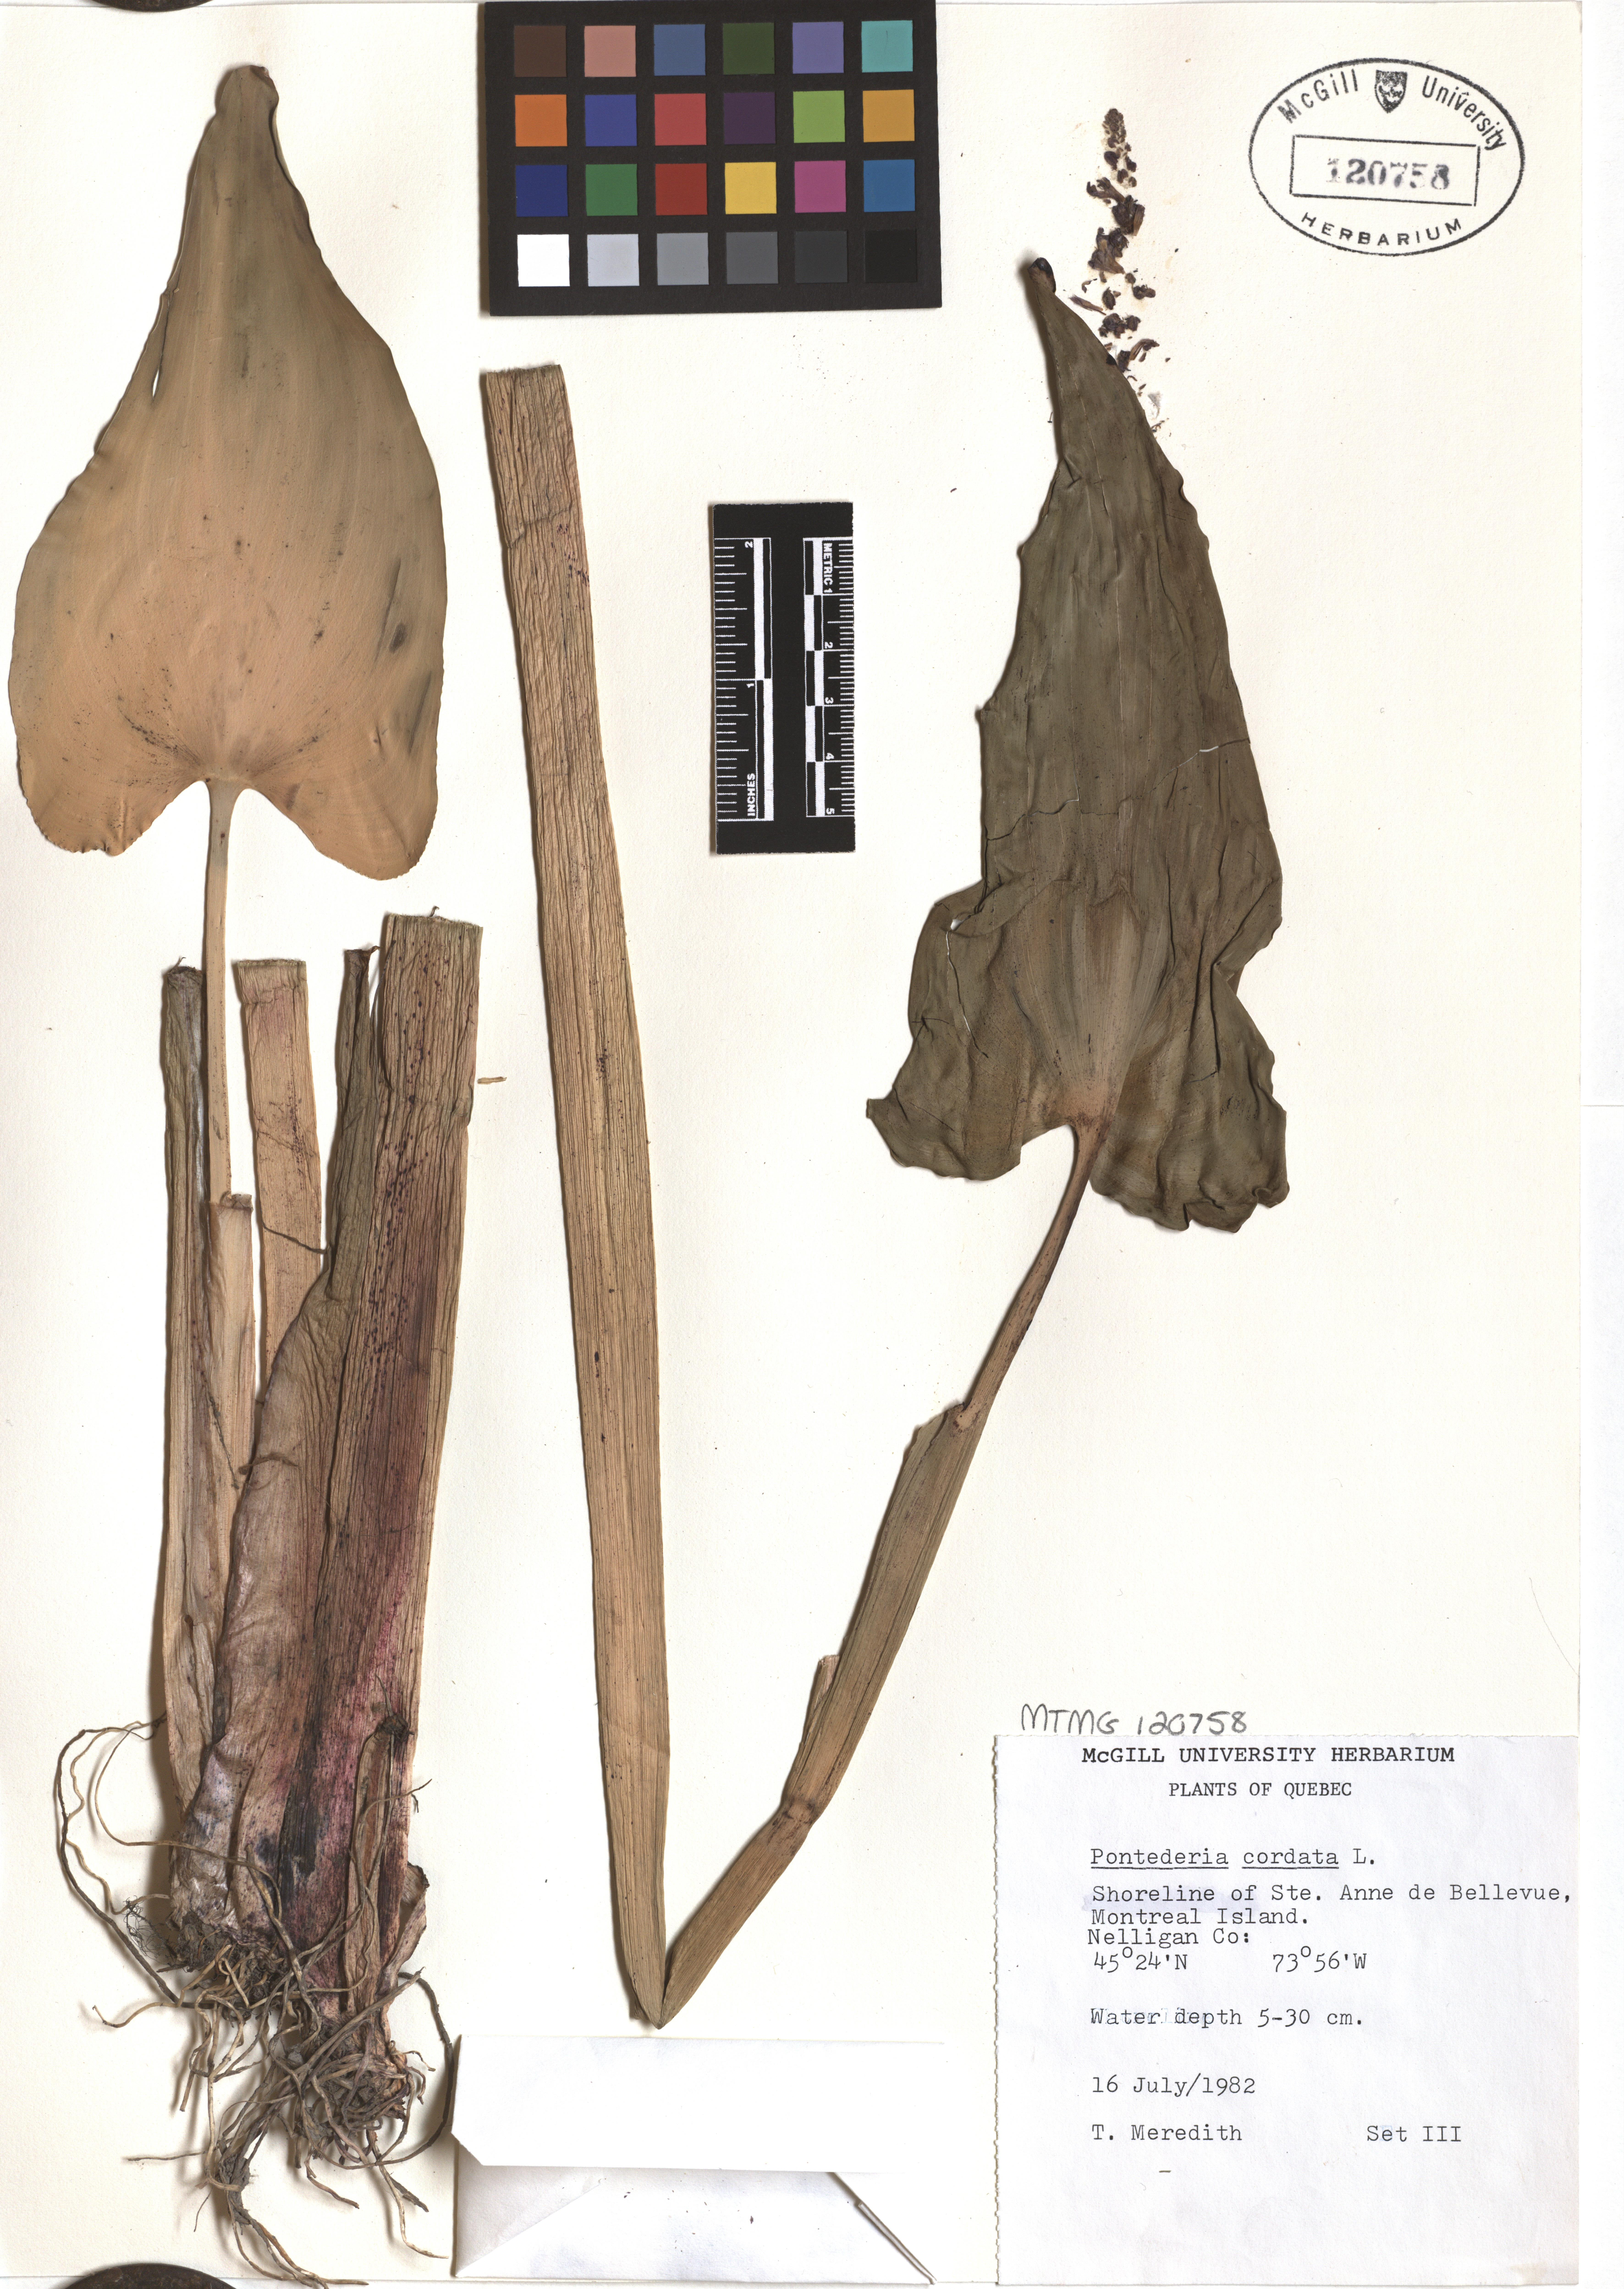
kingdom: Plantae
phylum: Tracheophyta
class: Liliopsida
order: Commelinales
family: Pontederiaceae
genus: Pontederia
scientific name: Pontederia cordata
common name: Pickerelweed
